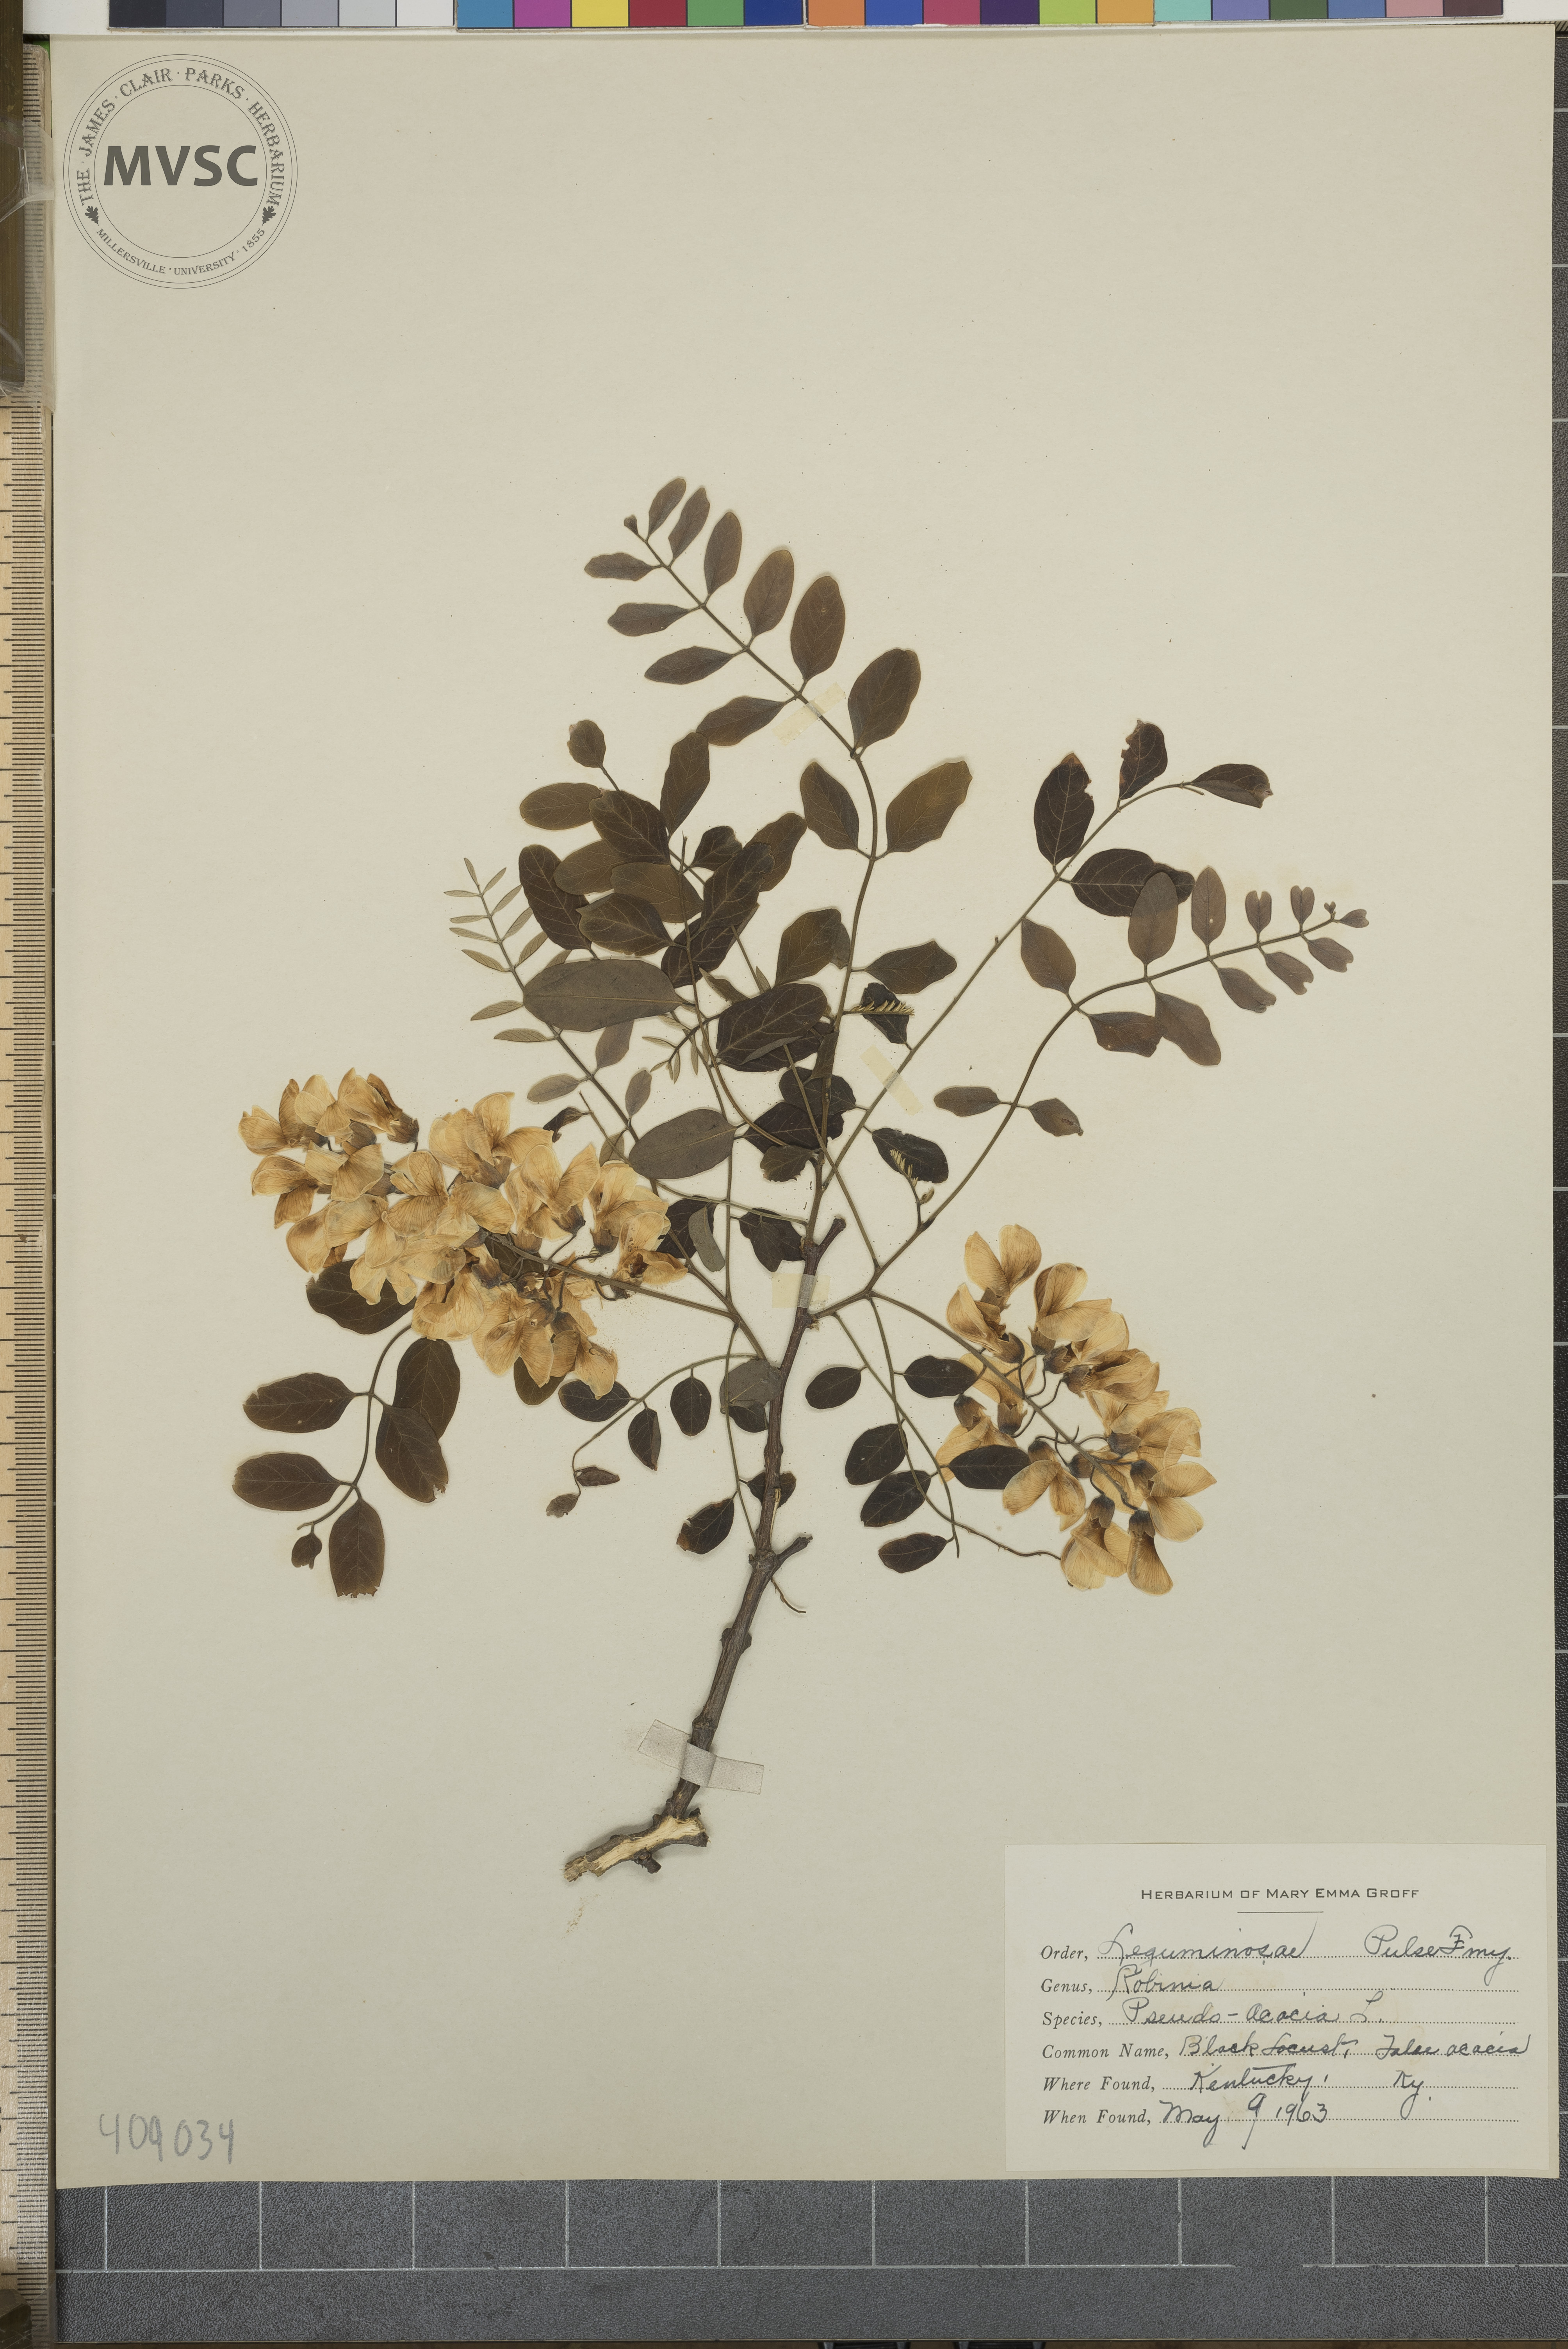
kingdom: Plantae
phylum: Tracheophyta
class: Magnoliopsida
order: Fabales
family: Fabaceae
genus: Robinia
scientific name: Robinia pseudoacacia
